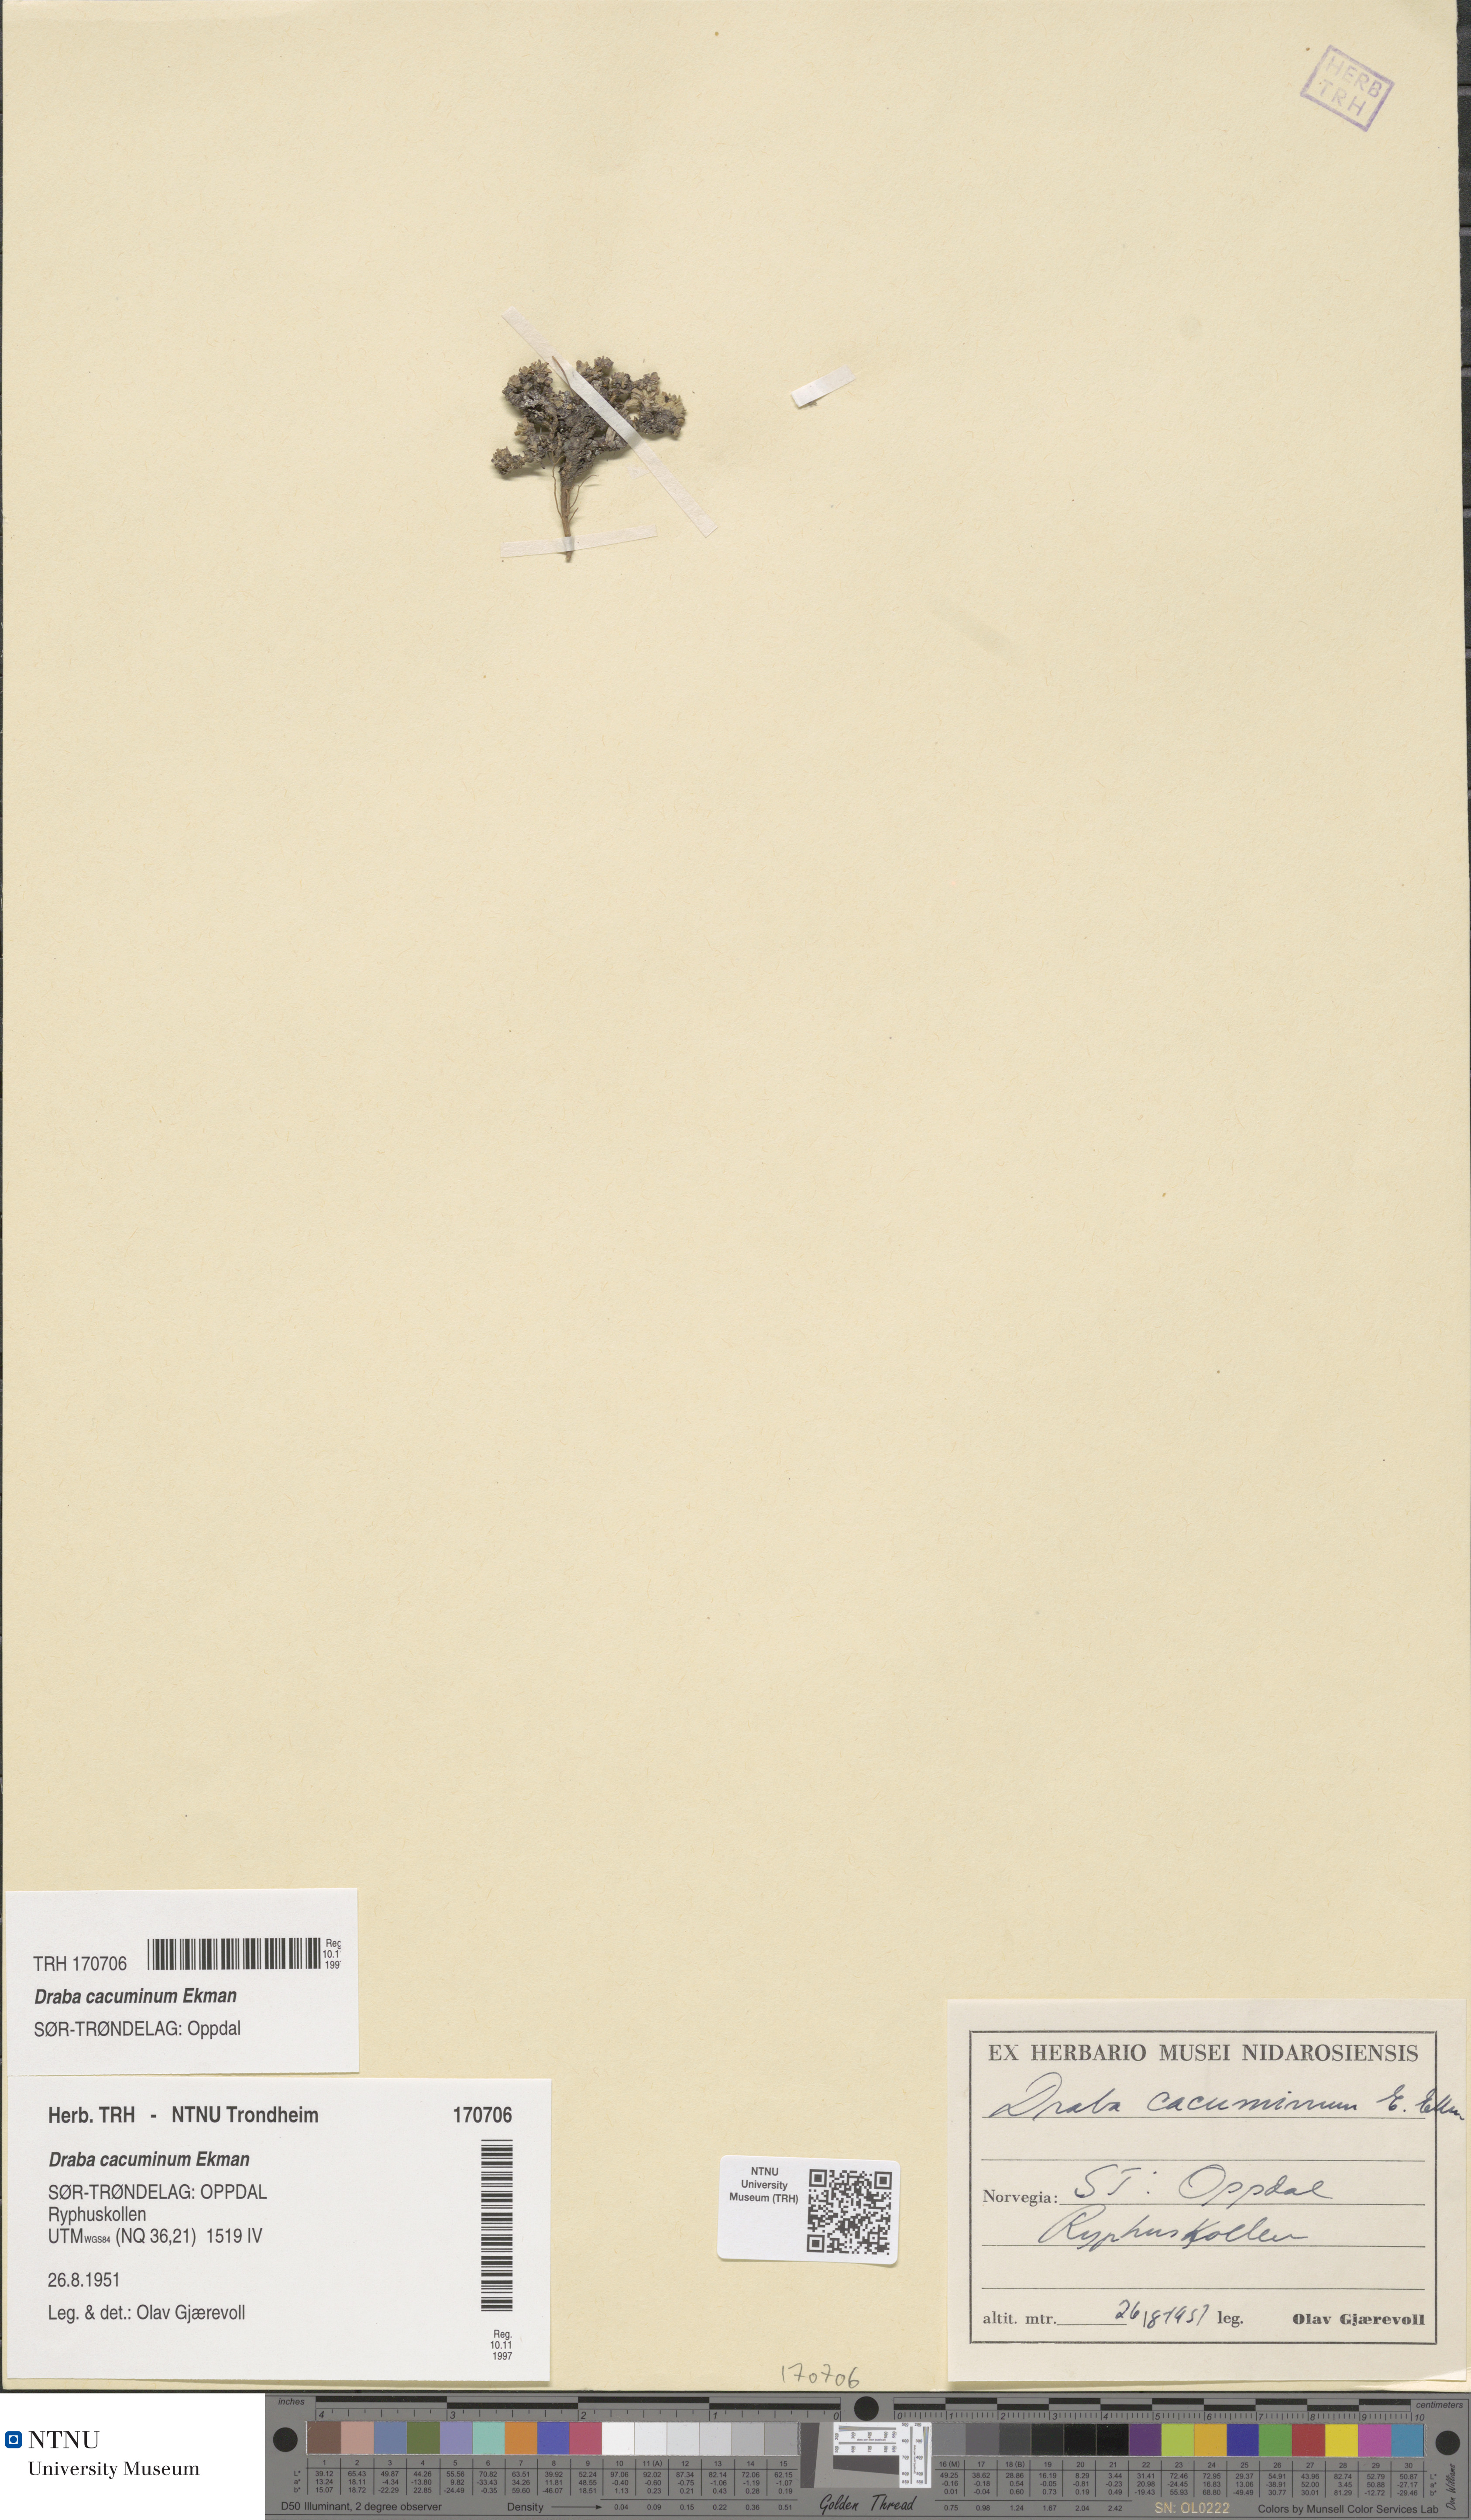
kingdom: Plantae
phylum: Tracheophyta
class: Magnoliopsida
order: Brassicales
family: Brassicaceae
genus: Draba
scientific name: Draba cacuminum
